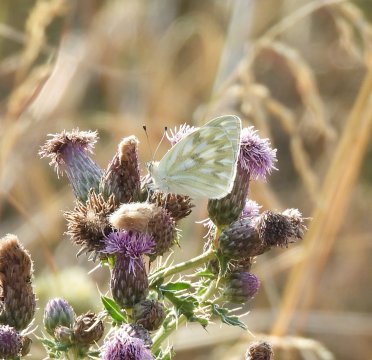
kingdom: Animalia
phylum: Arthropoda
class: Insecta
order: Lepidoptera
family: Pieridae
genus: Pontia
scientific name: Pontia protodice
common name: Checkered White
